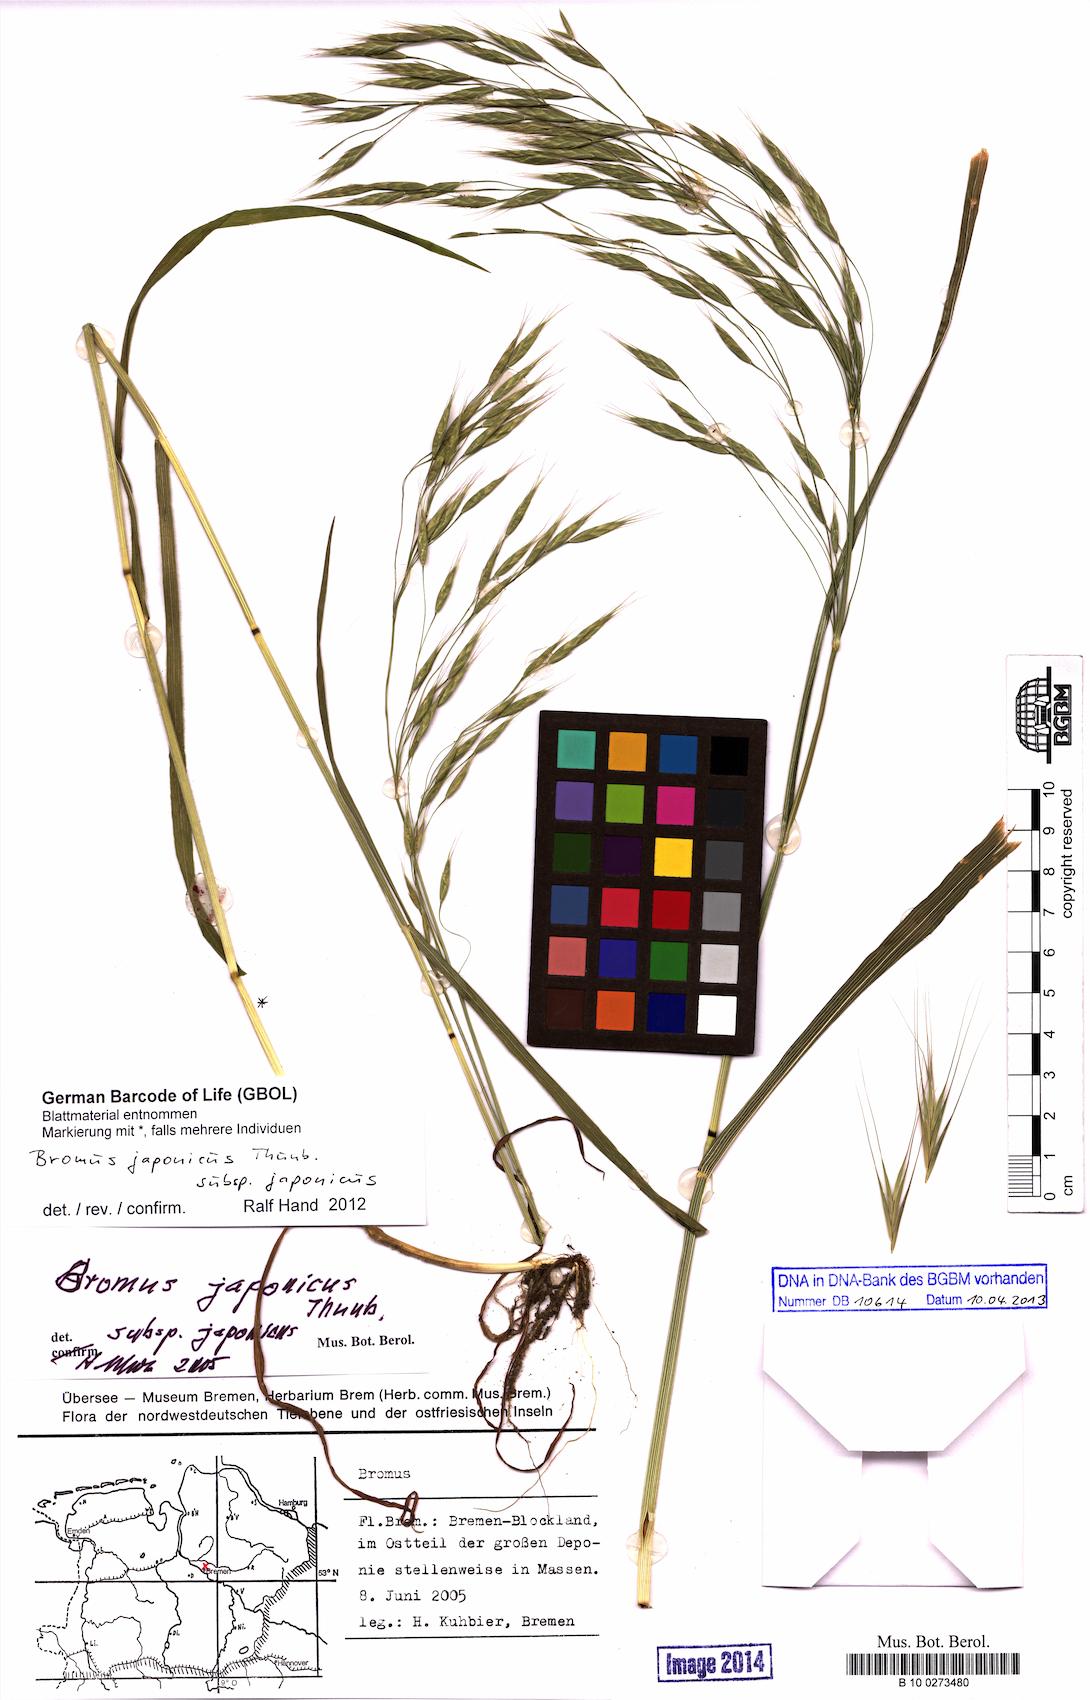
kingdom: Plantae
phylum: Tracheophyta
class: Liliopsida
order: Poales
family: Poaceae
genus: Bromus
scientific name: Bromus japonicus
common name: Japanese brome
